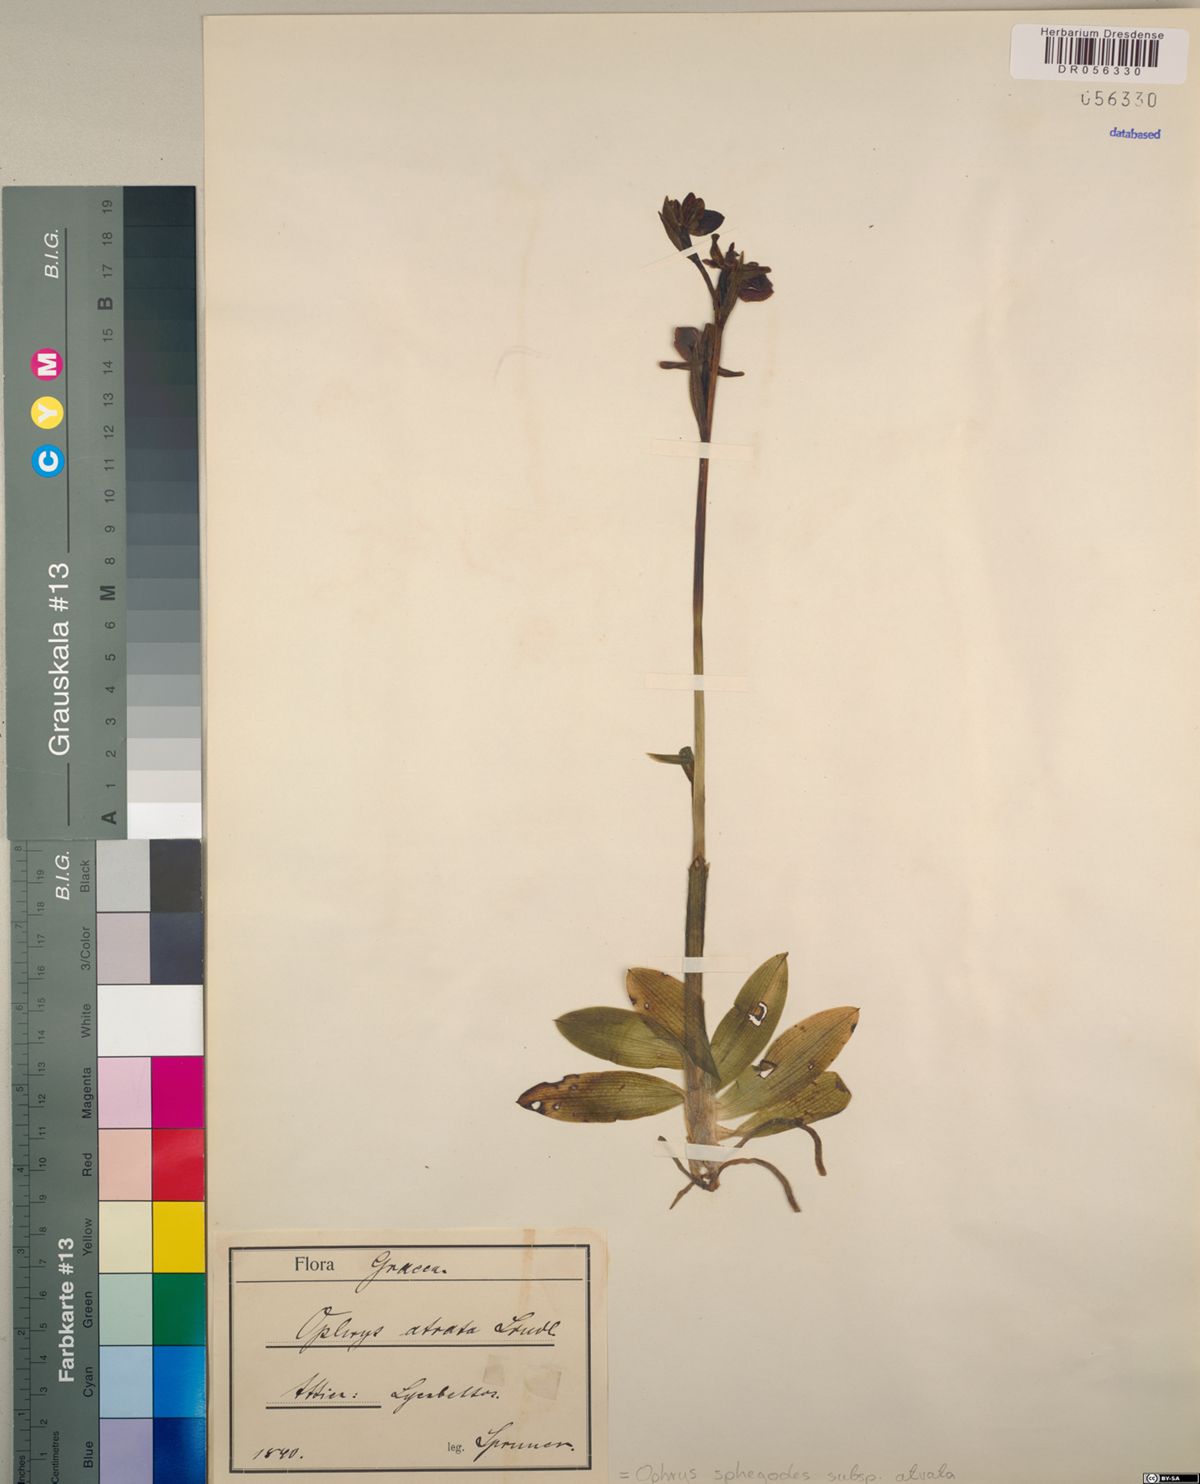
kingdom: Plantae
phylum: Tracheophyta
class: Liliopsida
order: Asparagales
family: Orchidaceae
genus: Ophrys
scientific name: Ophrys sphegodes
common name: Early spider-orchid
